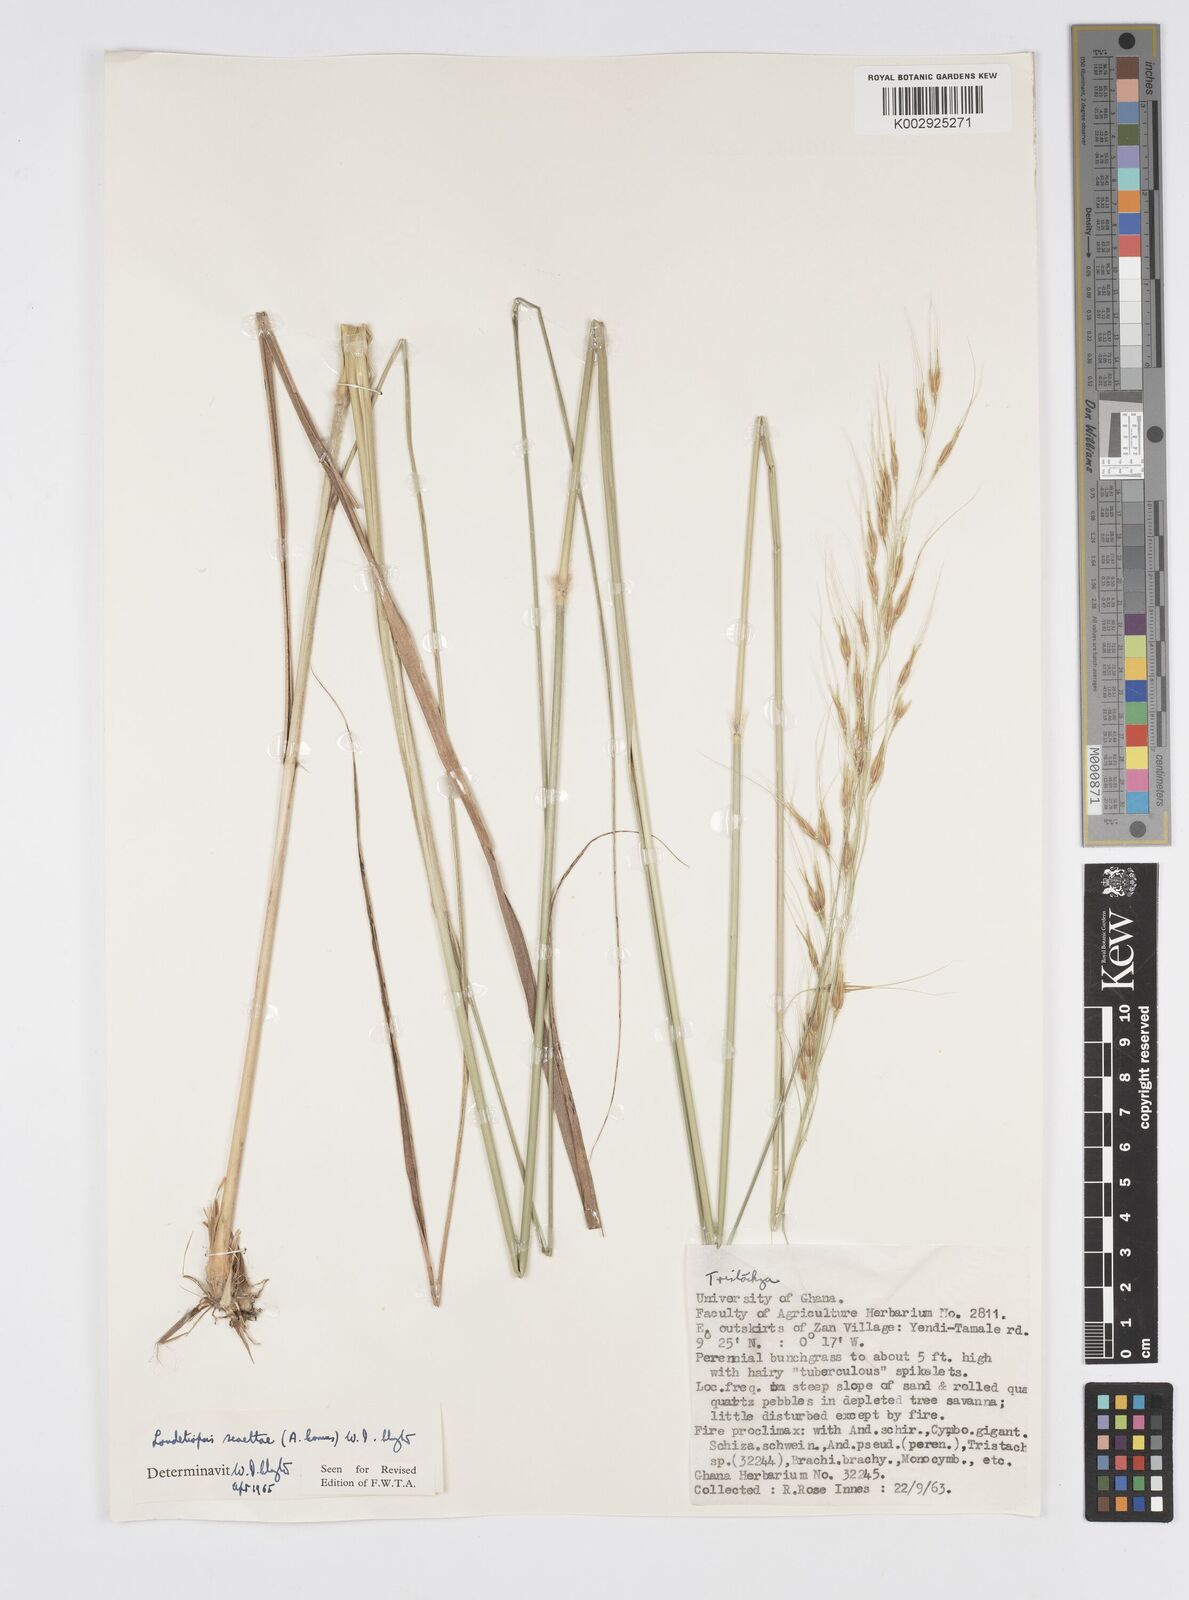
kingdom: Plantae
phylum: Tracheophyta
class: Liliopsida
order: Poales
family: Poaceae
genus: Loudetiopsis
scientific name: Loudetiopsis scaettae
